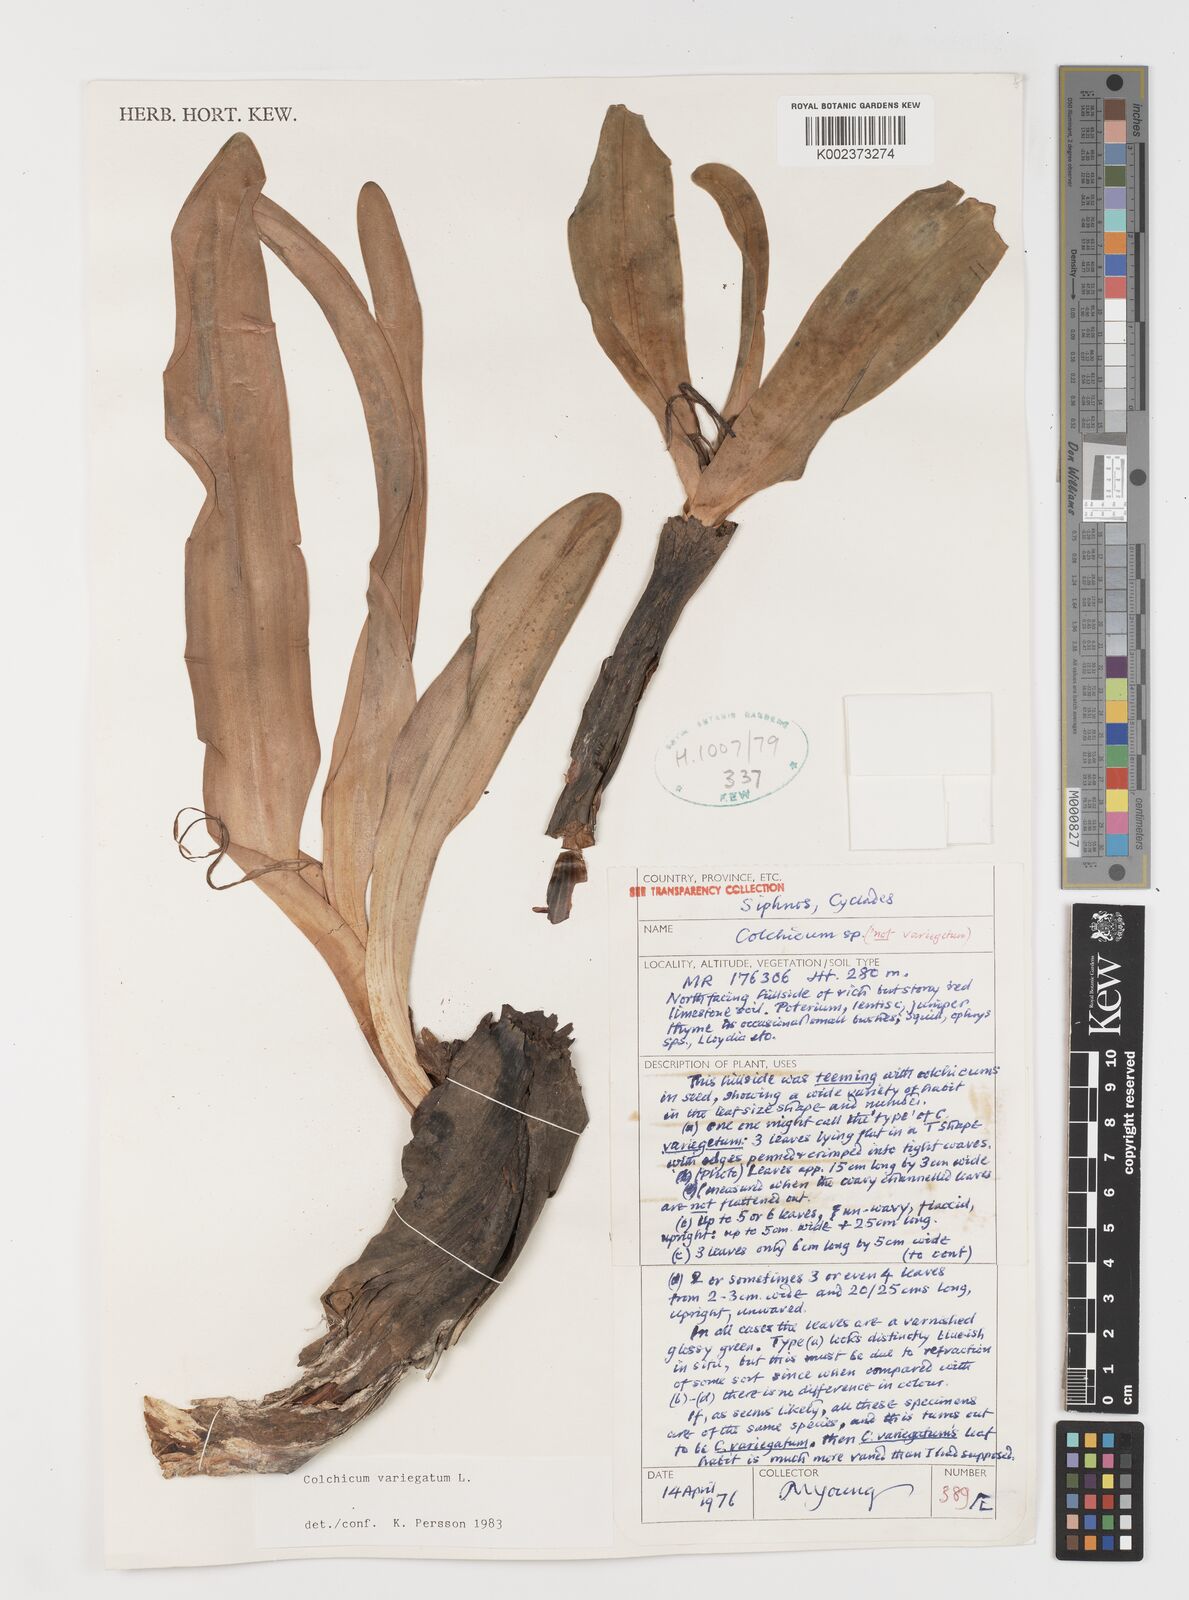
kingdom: Plantae
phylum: Tracheophyta
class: Liliopsida
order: Liliales
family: Colchicaceae
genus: Colchicum
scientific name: Colchicum variegatum
